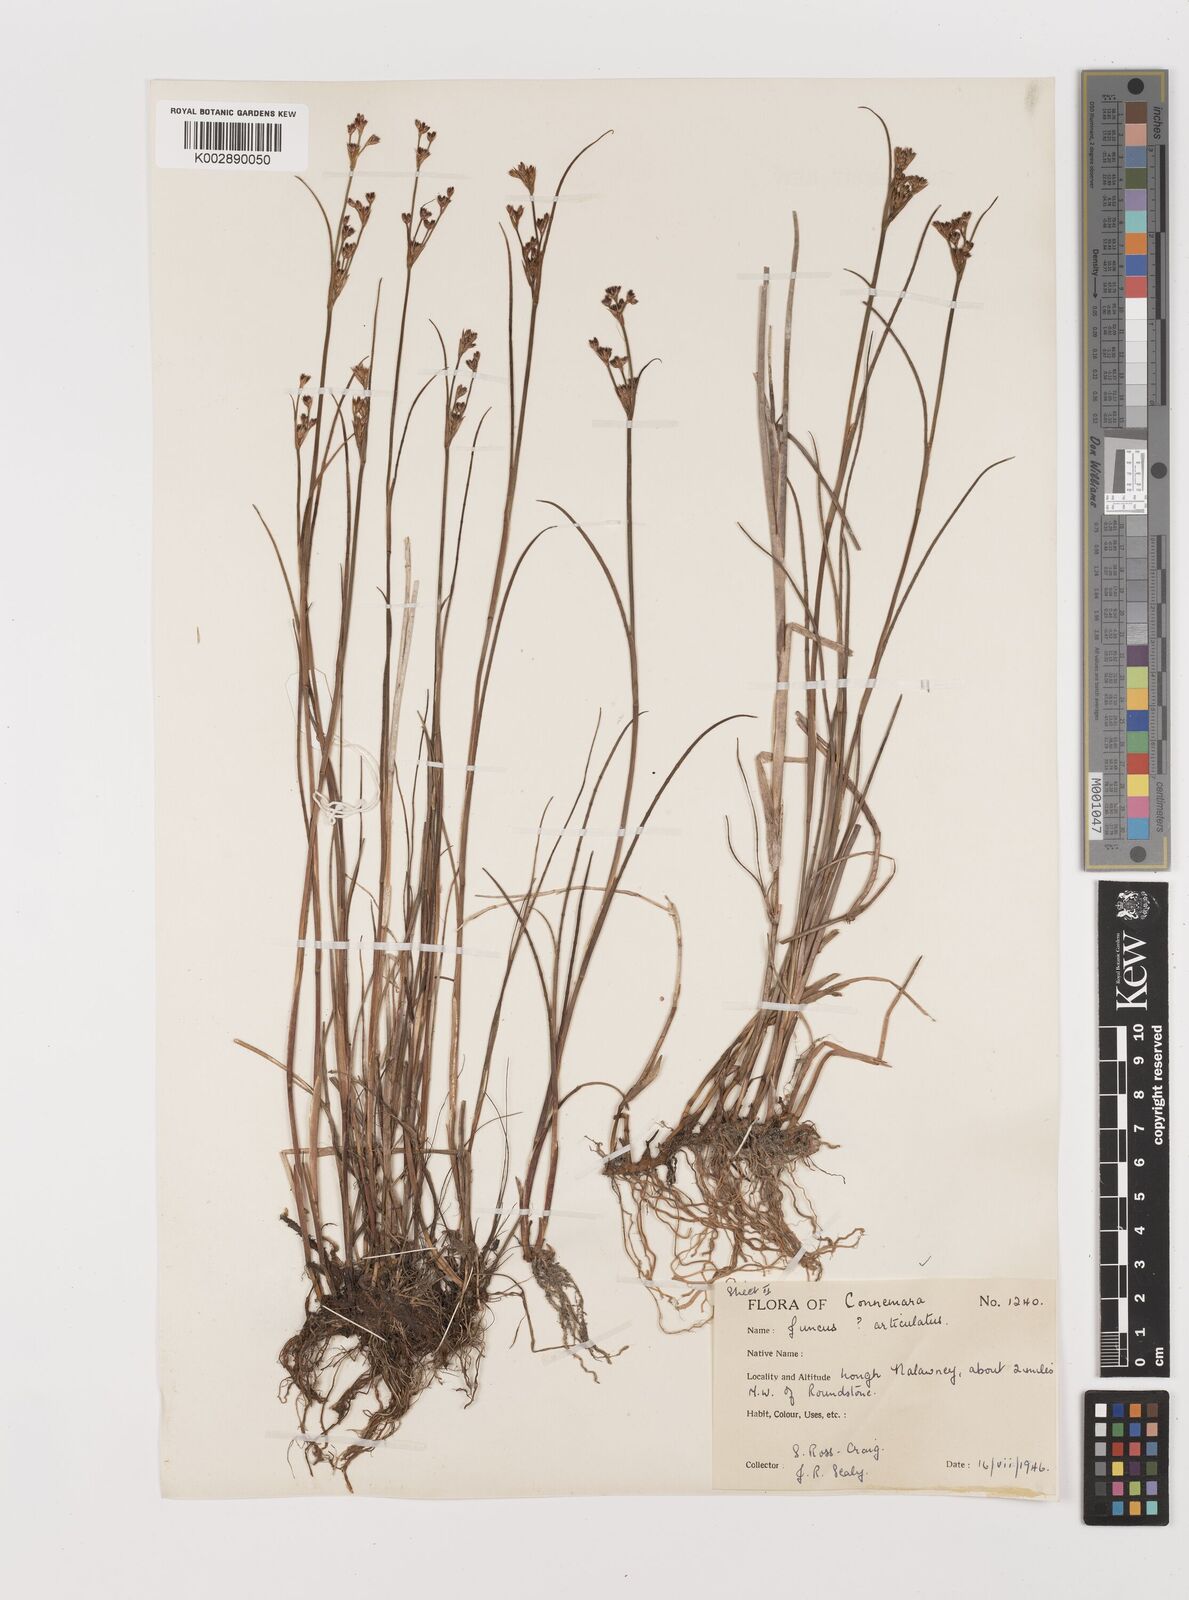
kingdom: Plantae
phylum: Tracheophyta
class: Liliopsida
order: Poales
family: Juncaceae
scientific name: Juncaceae
